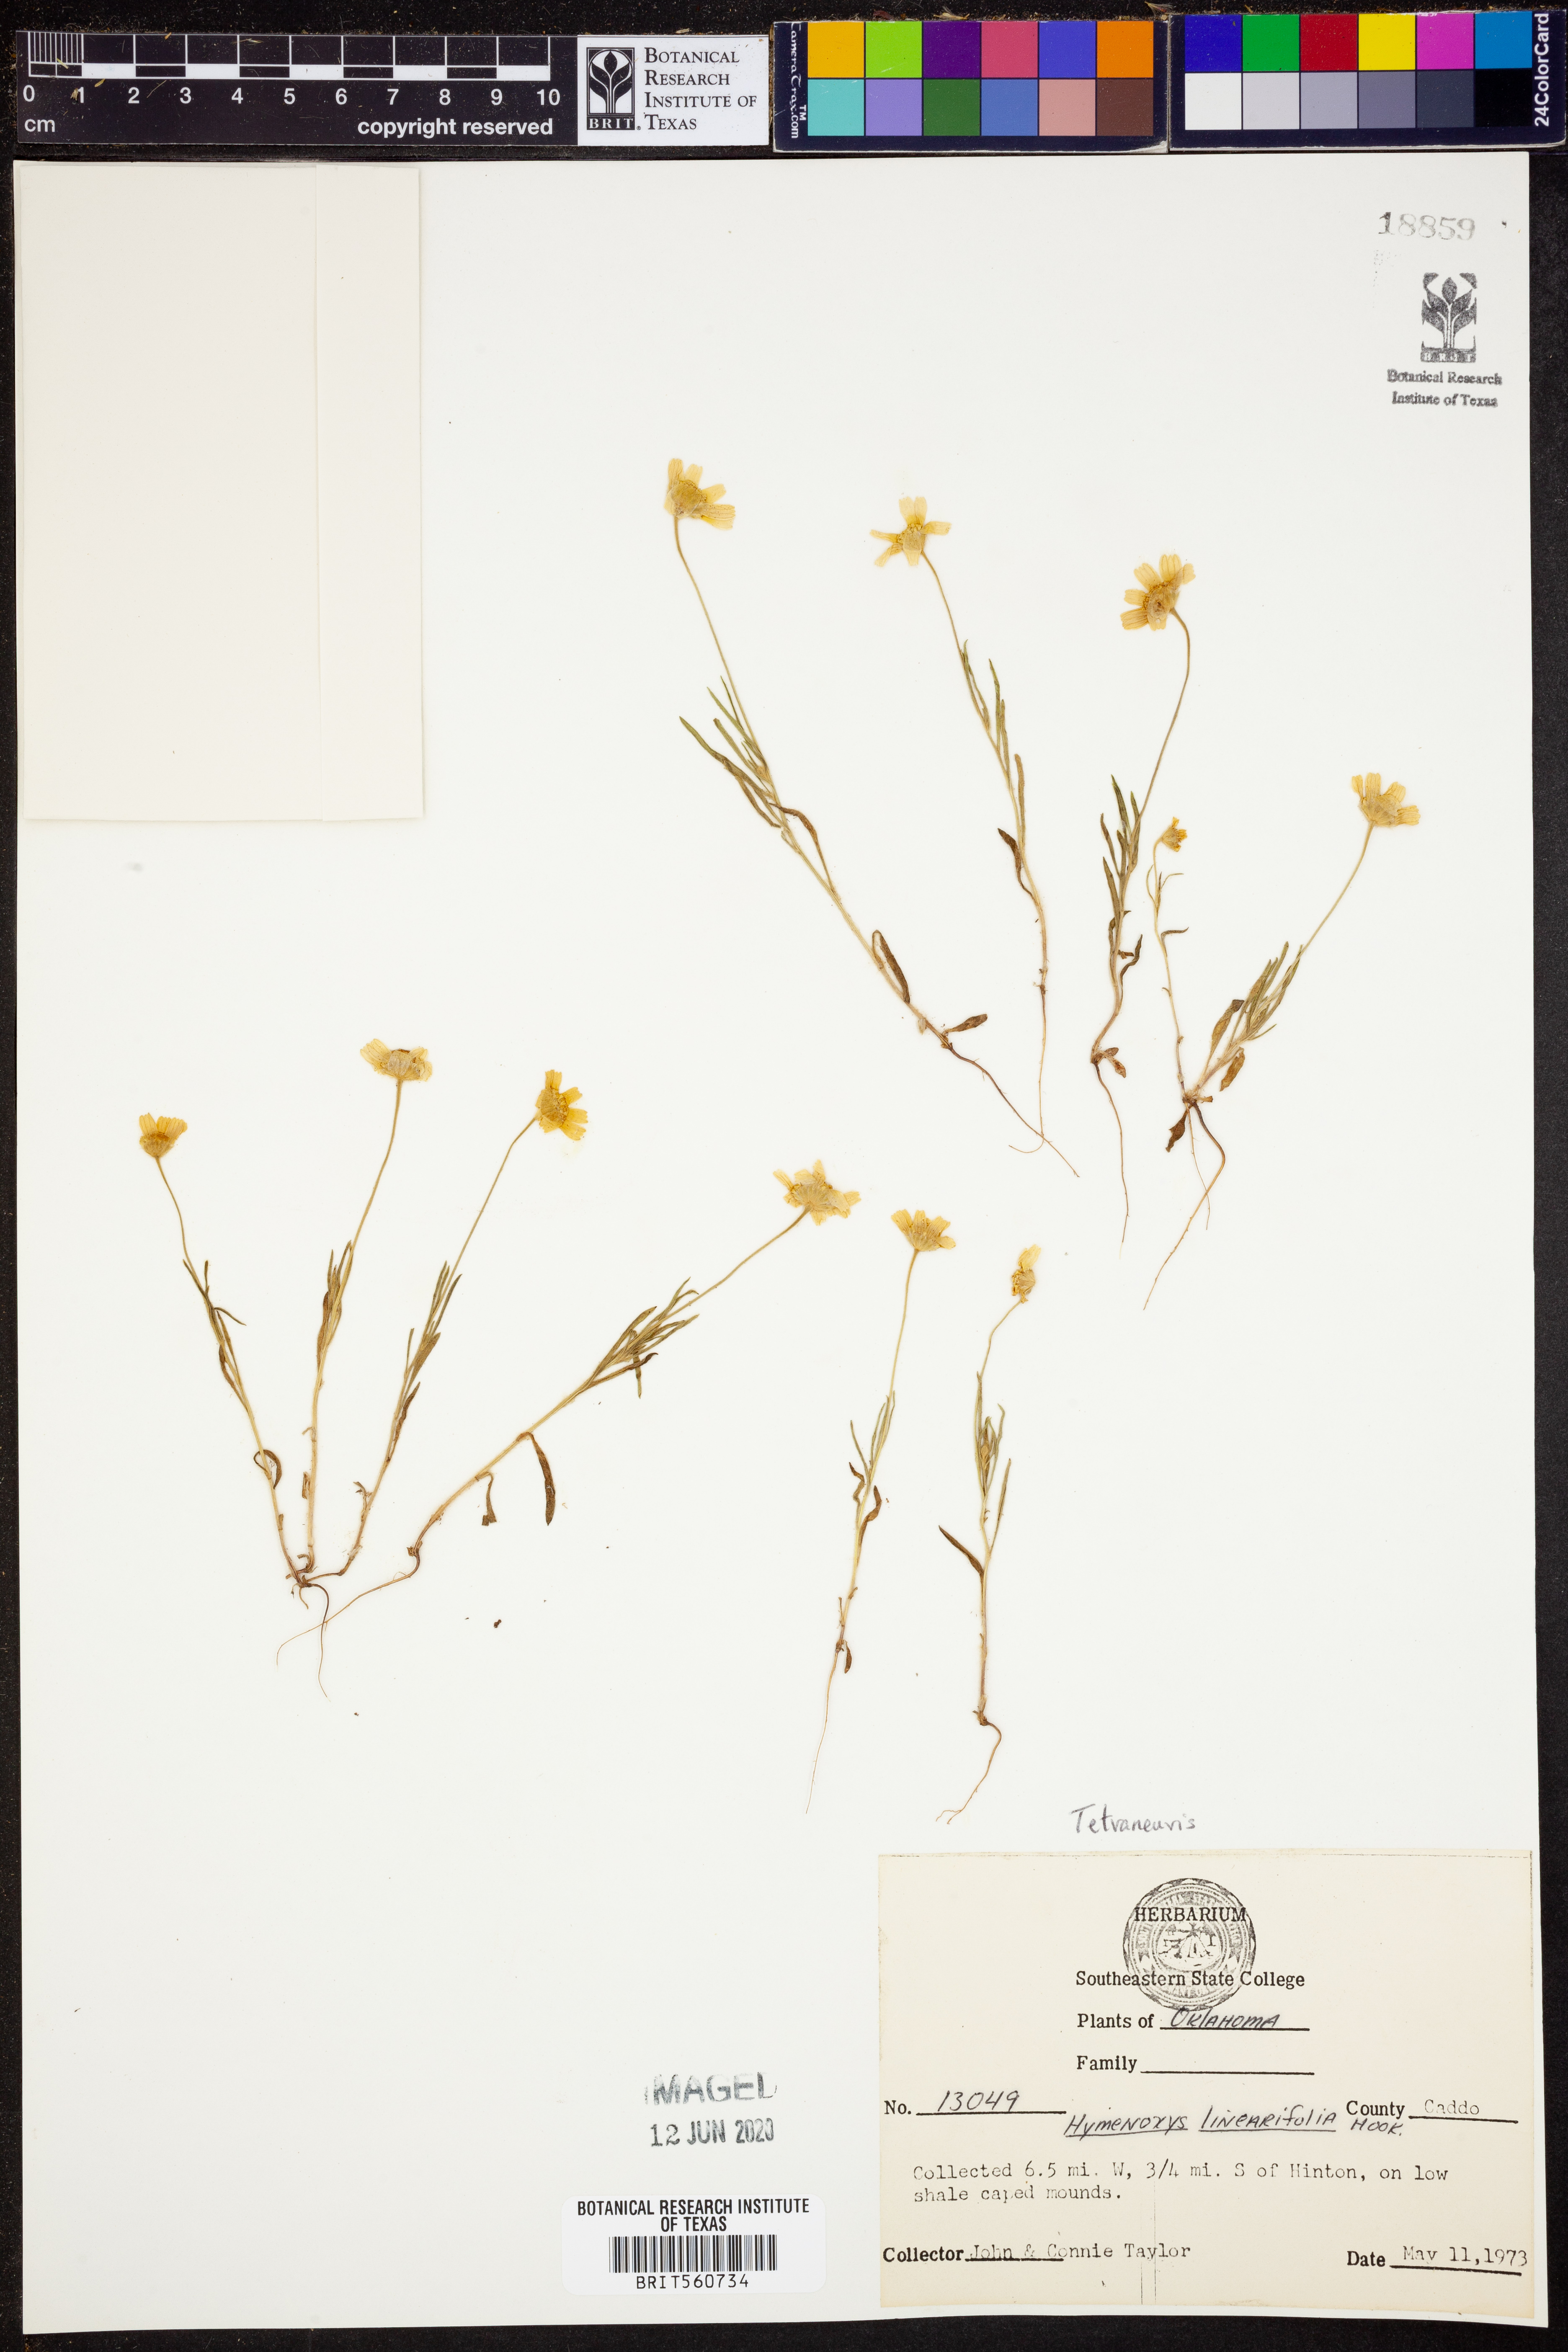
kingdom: Plantae
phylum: Tracheophyta
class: Magnoliopsida
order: Asterales
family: Asteraceae
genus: Tetraneuris
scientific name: Tetraneuris linearifolia
